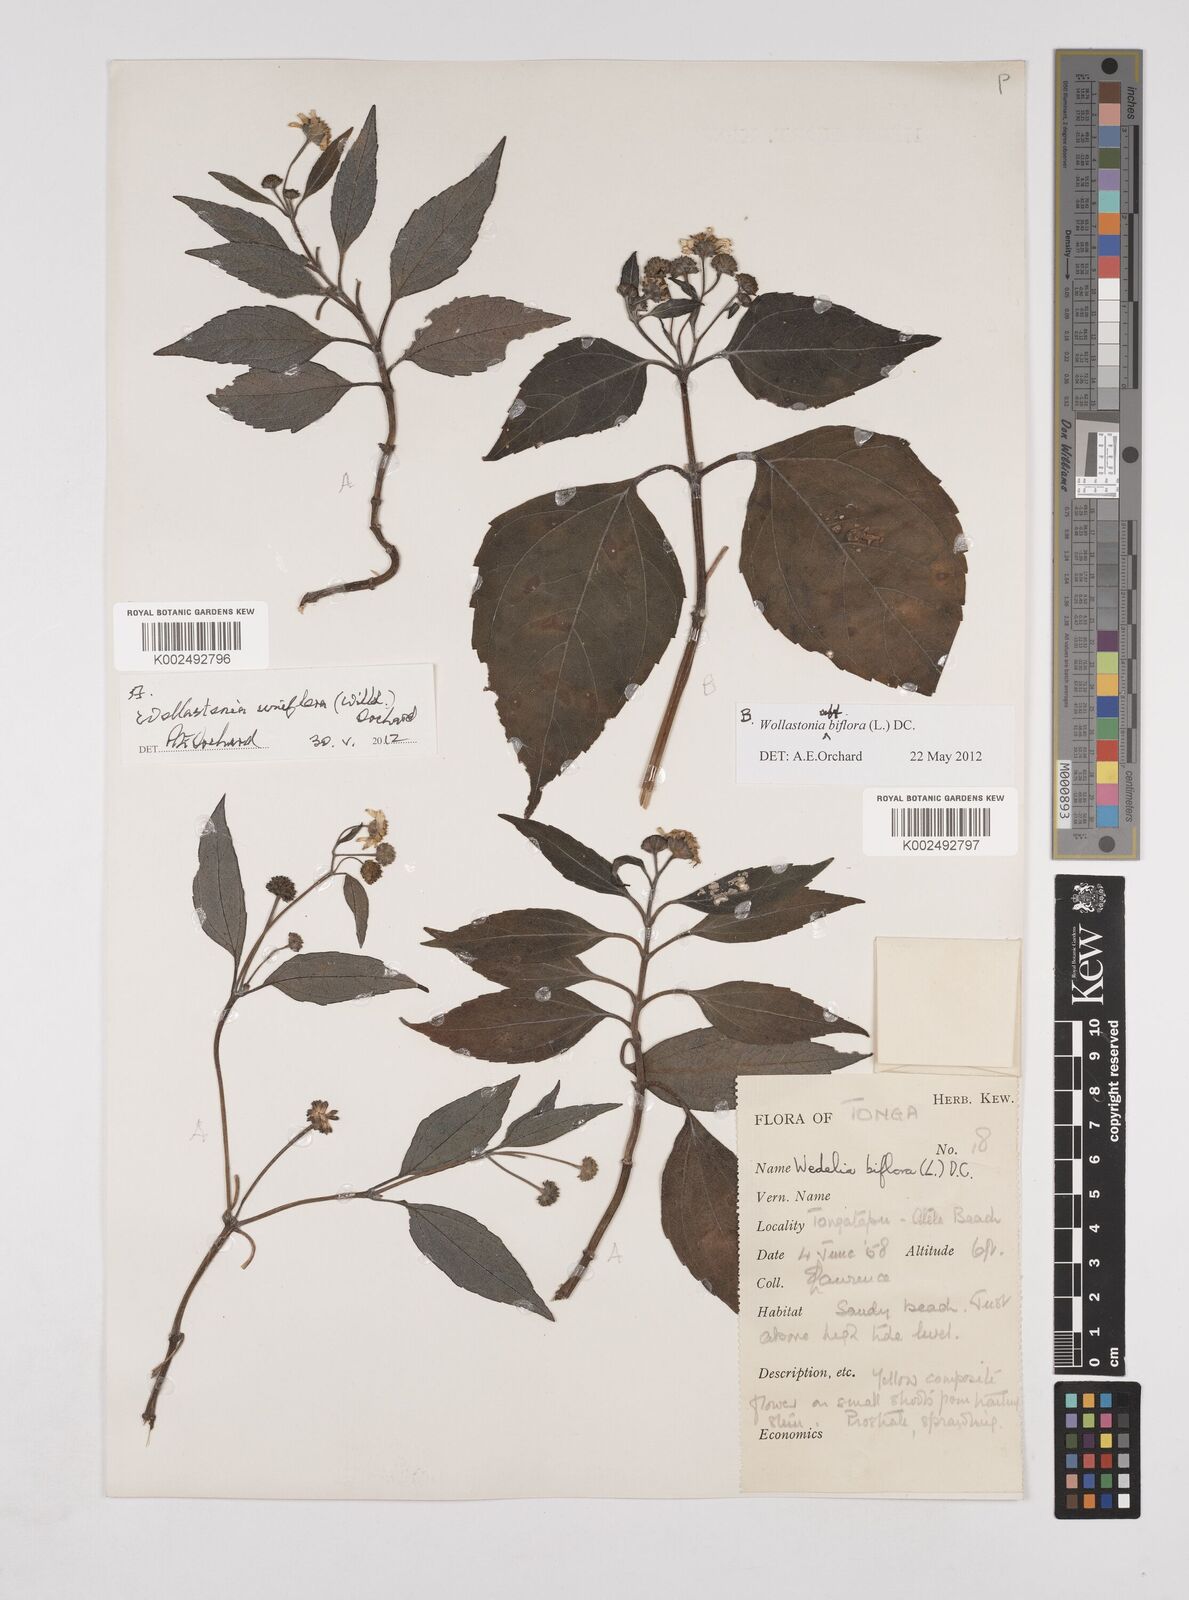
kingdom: Plantae
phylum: Tracheophyta
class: Magnoliopsida
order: Asterales
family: Asteraceae
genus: Wollastonia
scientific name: Wollastonia biflora
